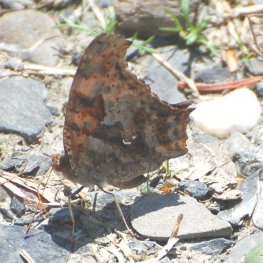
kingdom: Animalia
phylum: Arthropoda
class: Insecta
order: Lepidoptera
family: Nymphalidae
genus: Polygonia
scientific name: Polygonia interrogationis
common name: Question Mark
